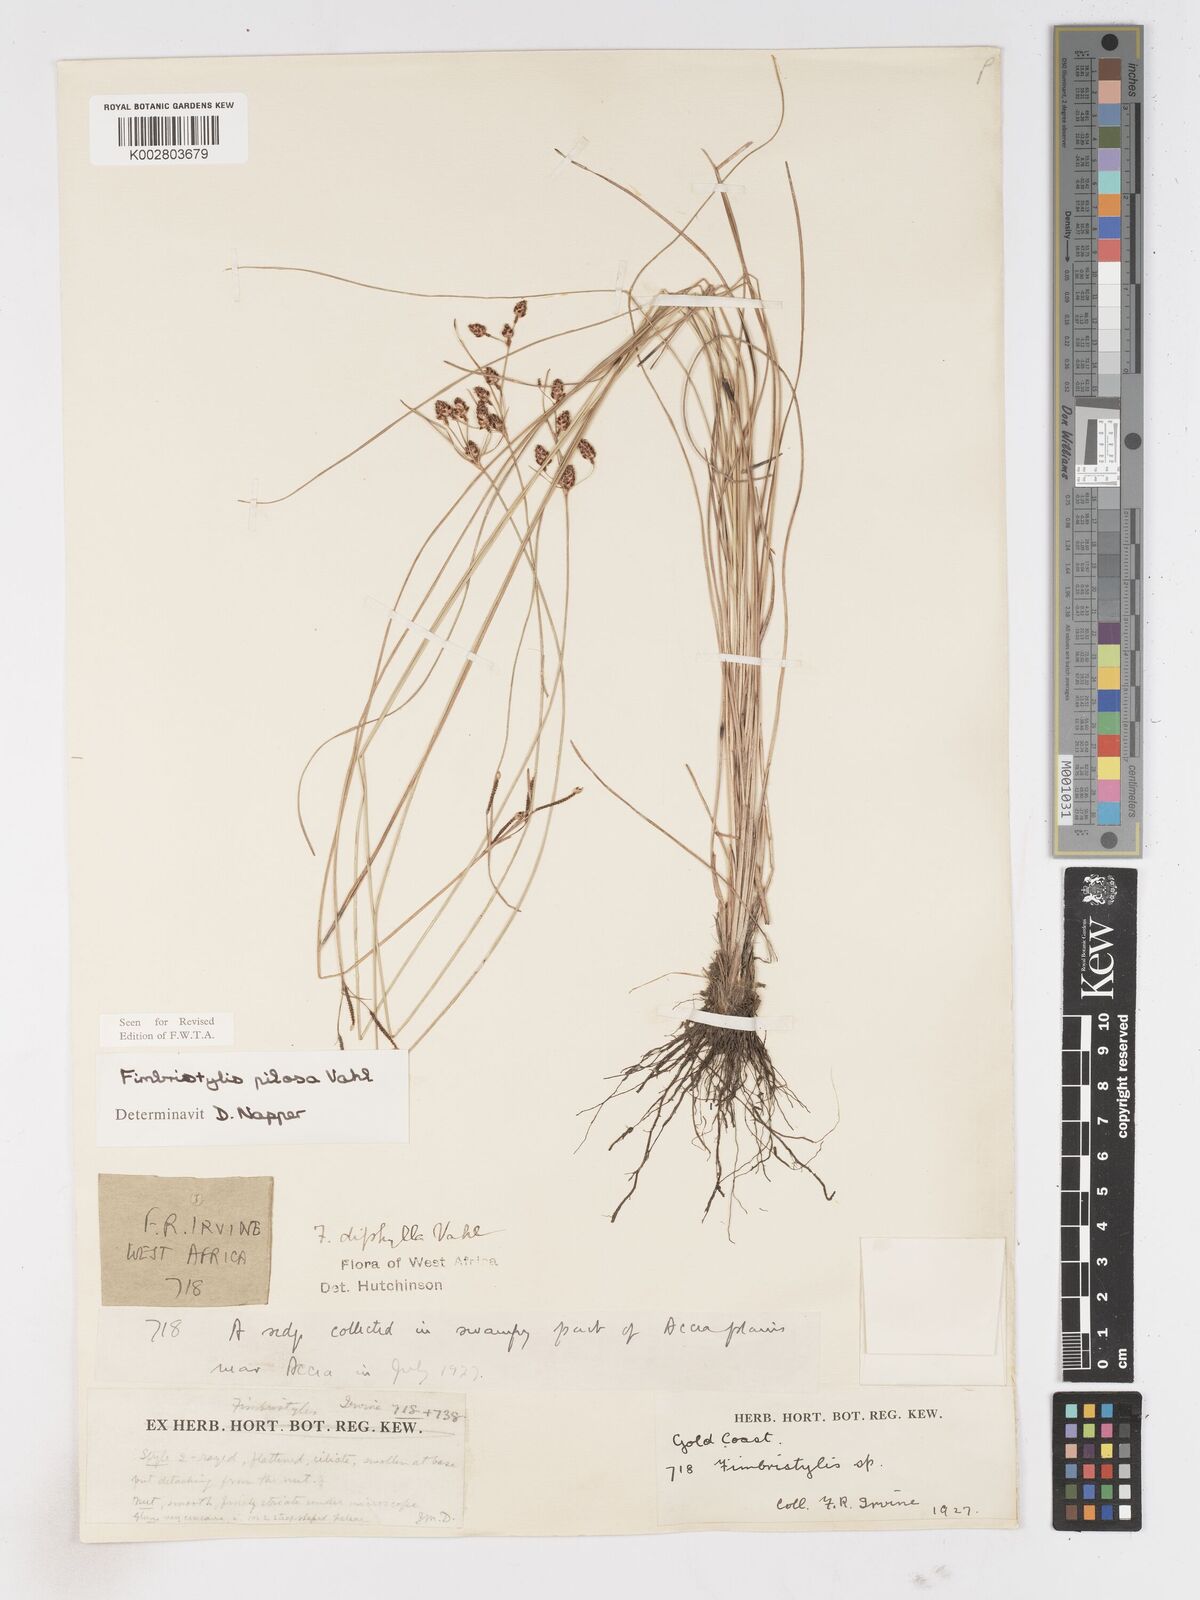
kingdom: Plantae
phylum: Tracheophyta
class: Liliopsida
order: Poales
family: Cyperaceae
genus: Fimbristylis
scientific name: Fimbristylis pilosa
